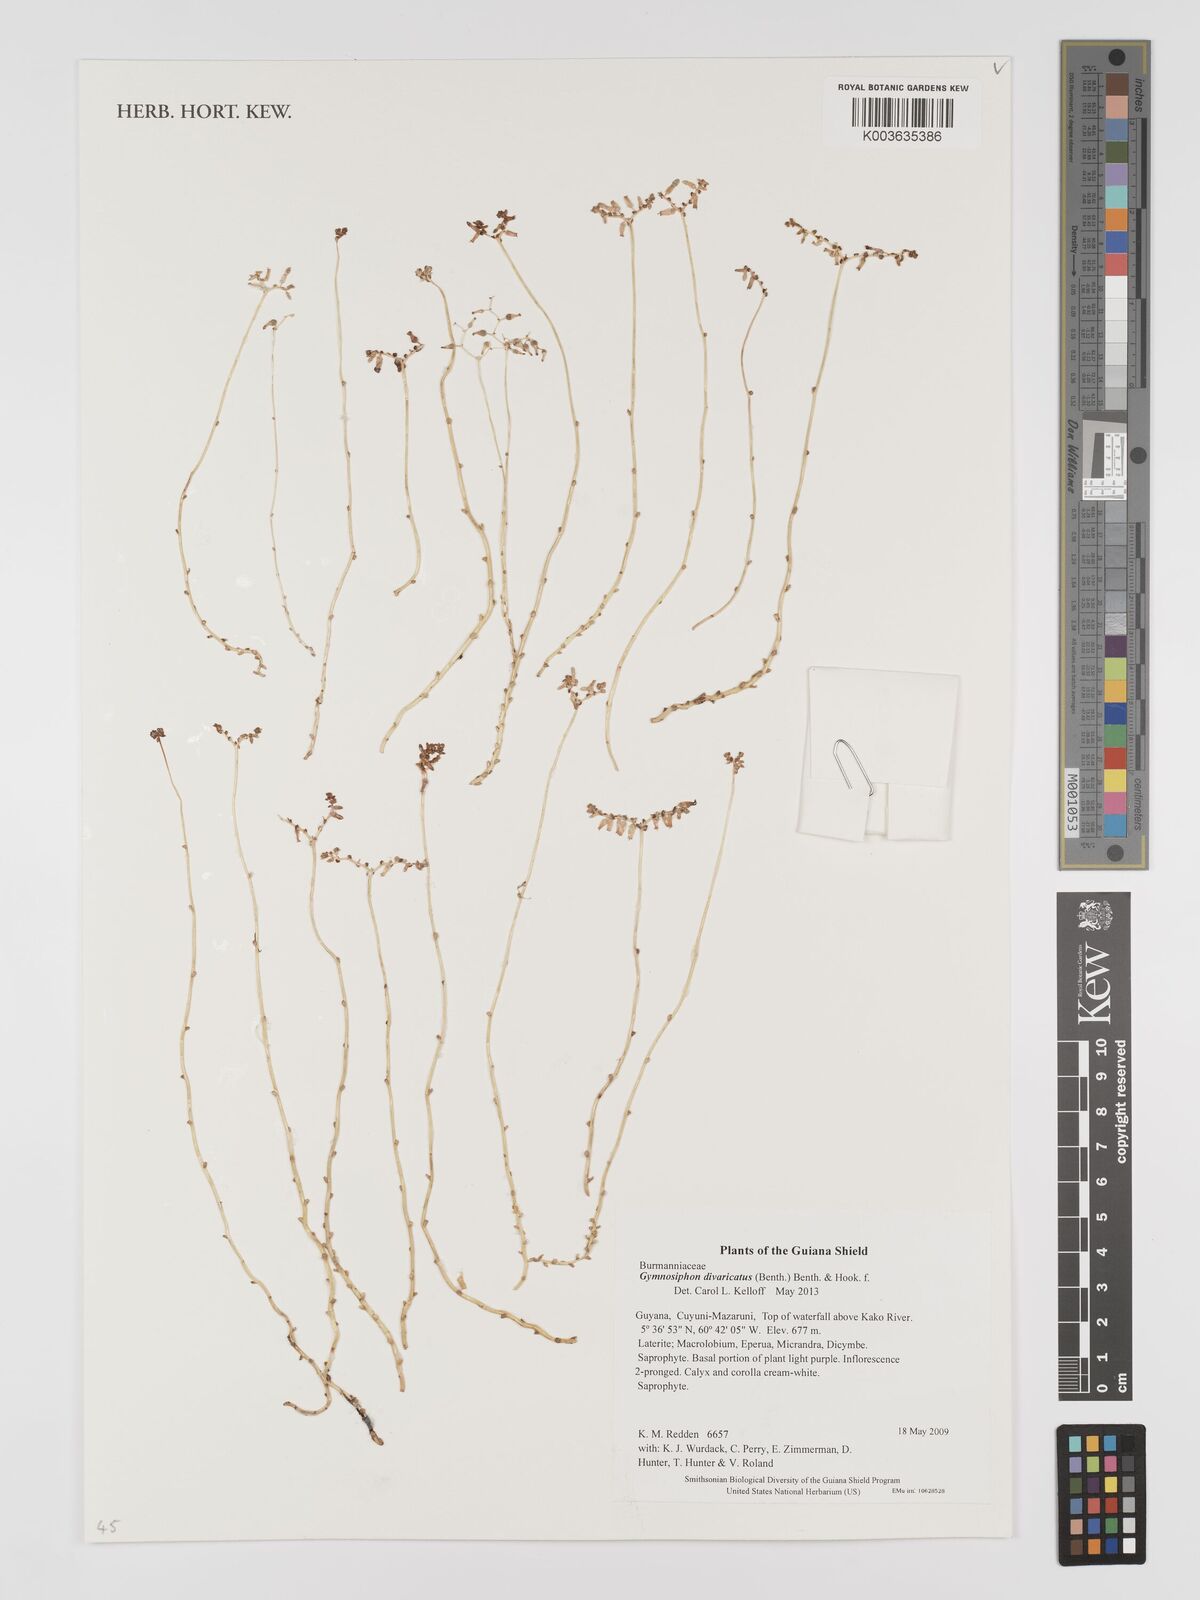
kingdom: Plantae
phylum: Tracheophyta
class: Liliopsida
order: Dioscoreales
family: Burmanniaceae
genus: Gymnosiphon
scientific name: Gymnosiphon divaricatus
